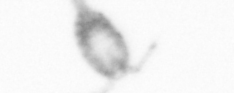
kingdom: Animalia
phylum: Arthropoda
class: Copepoda
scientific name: Copepoda
